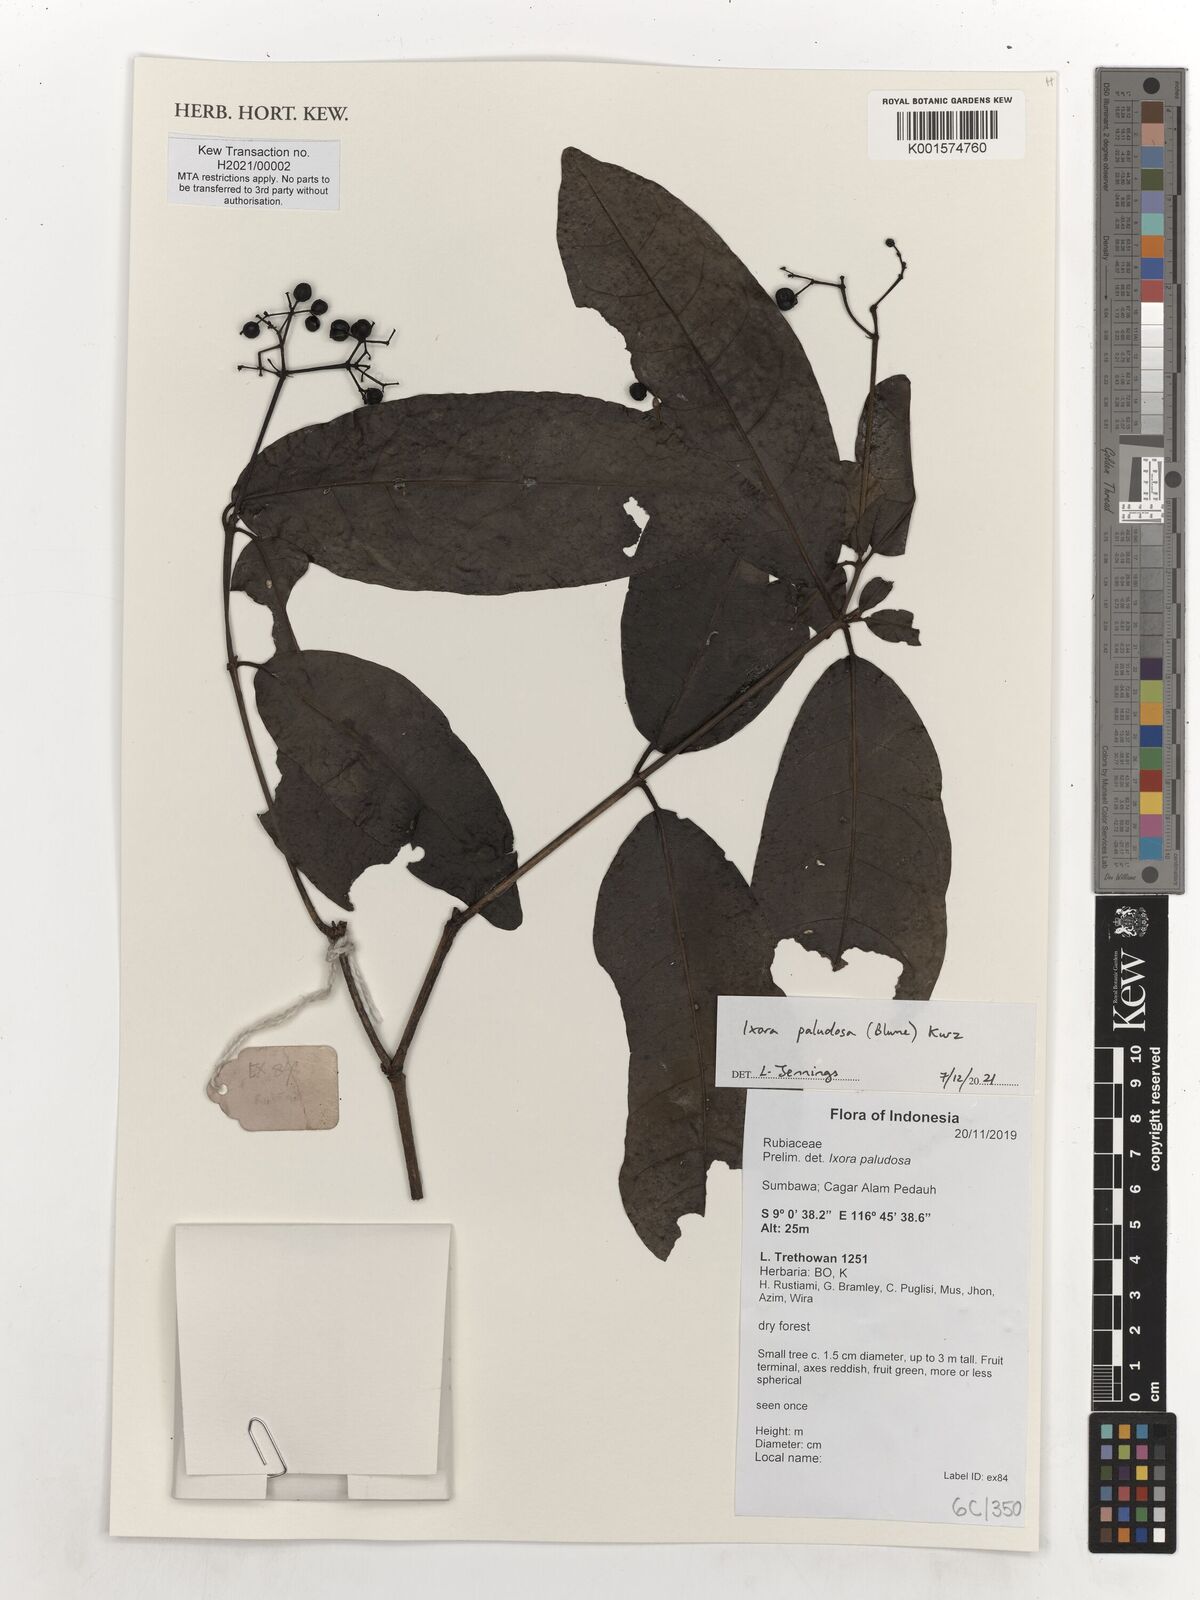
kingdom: Plantae
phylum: Tracheophyta
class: Magnoliopsida
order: Gentianales
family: Rubiaceae
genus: Ixora
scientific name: Ixora paludosa
